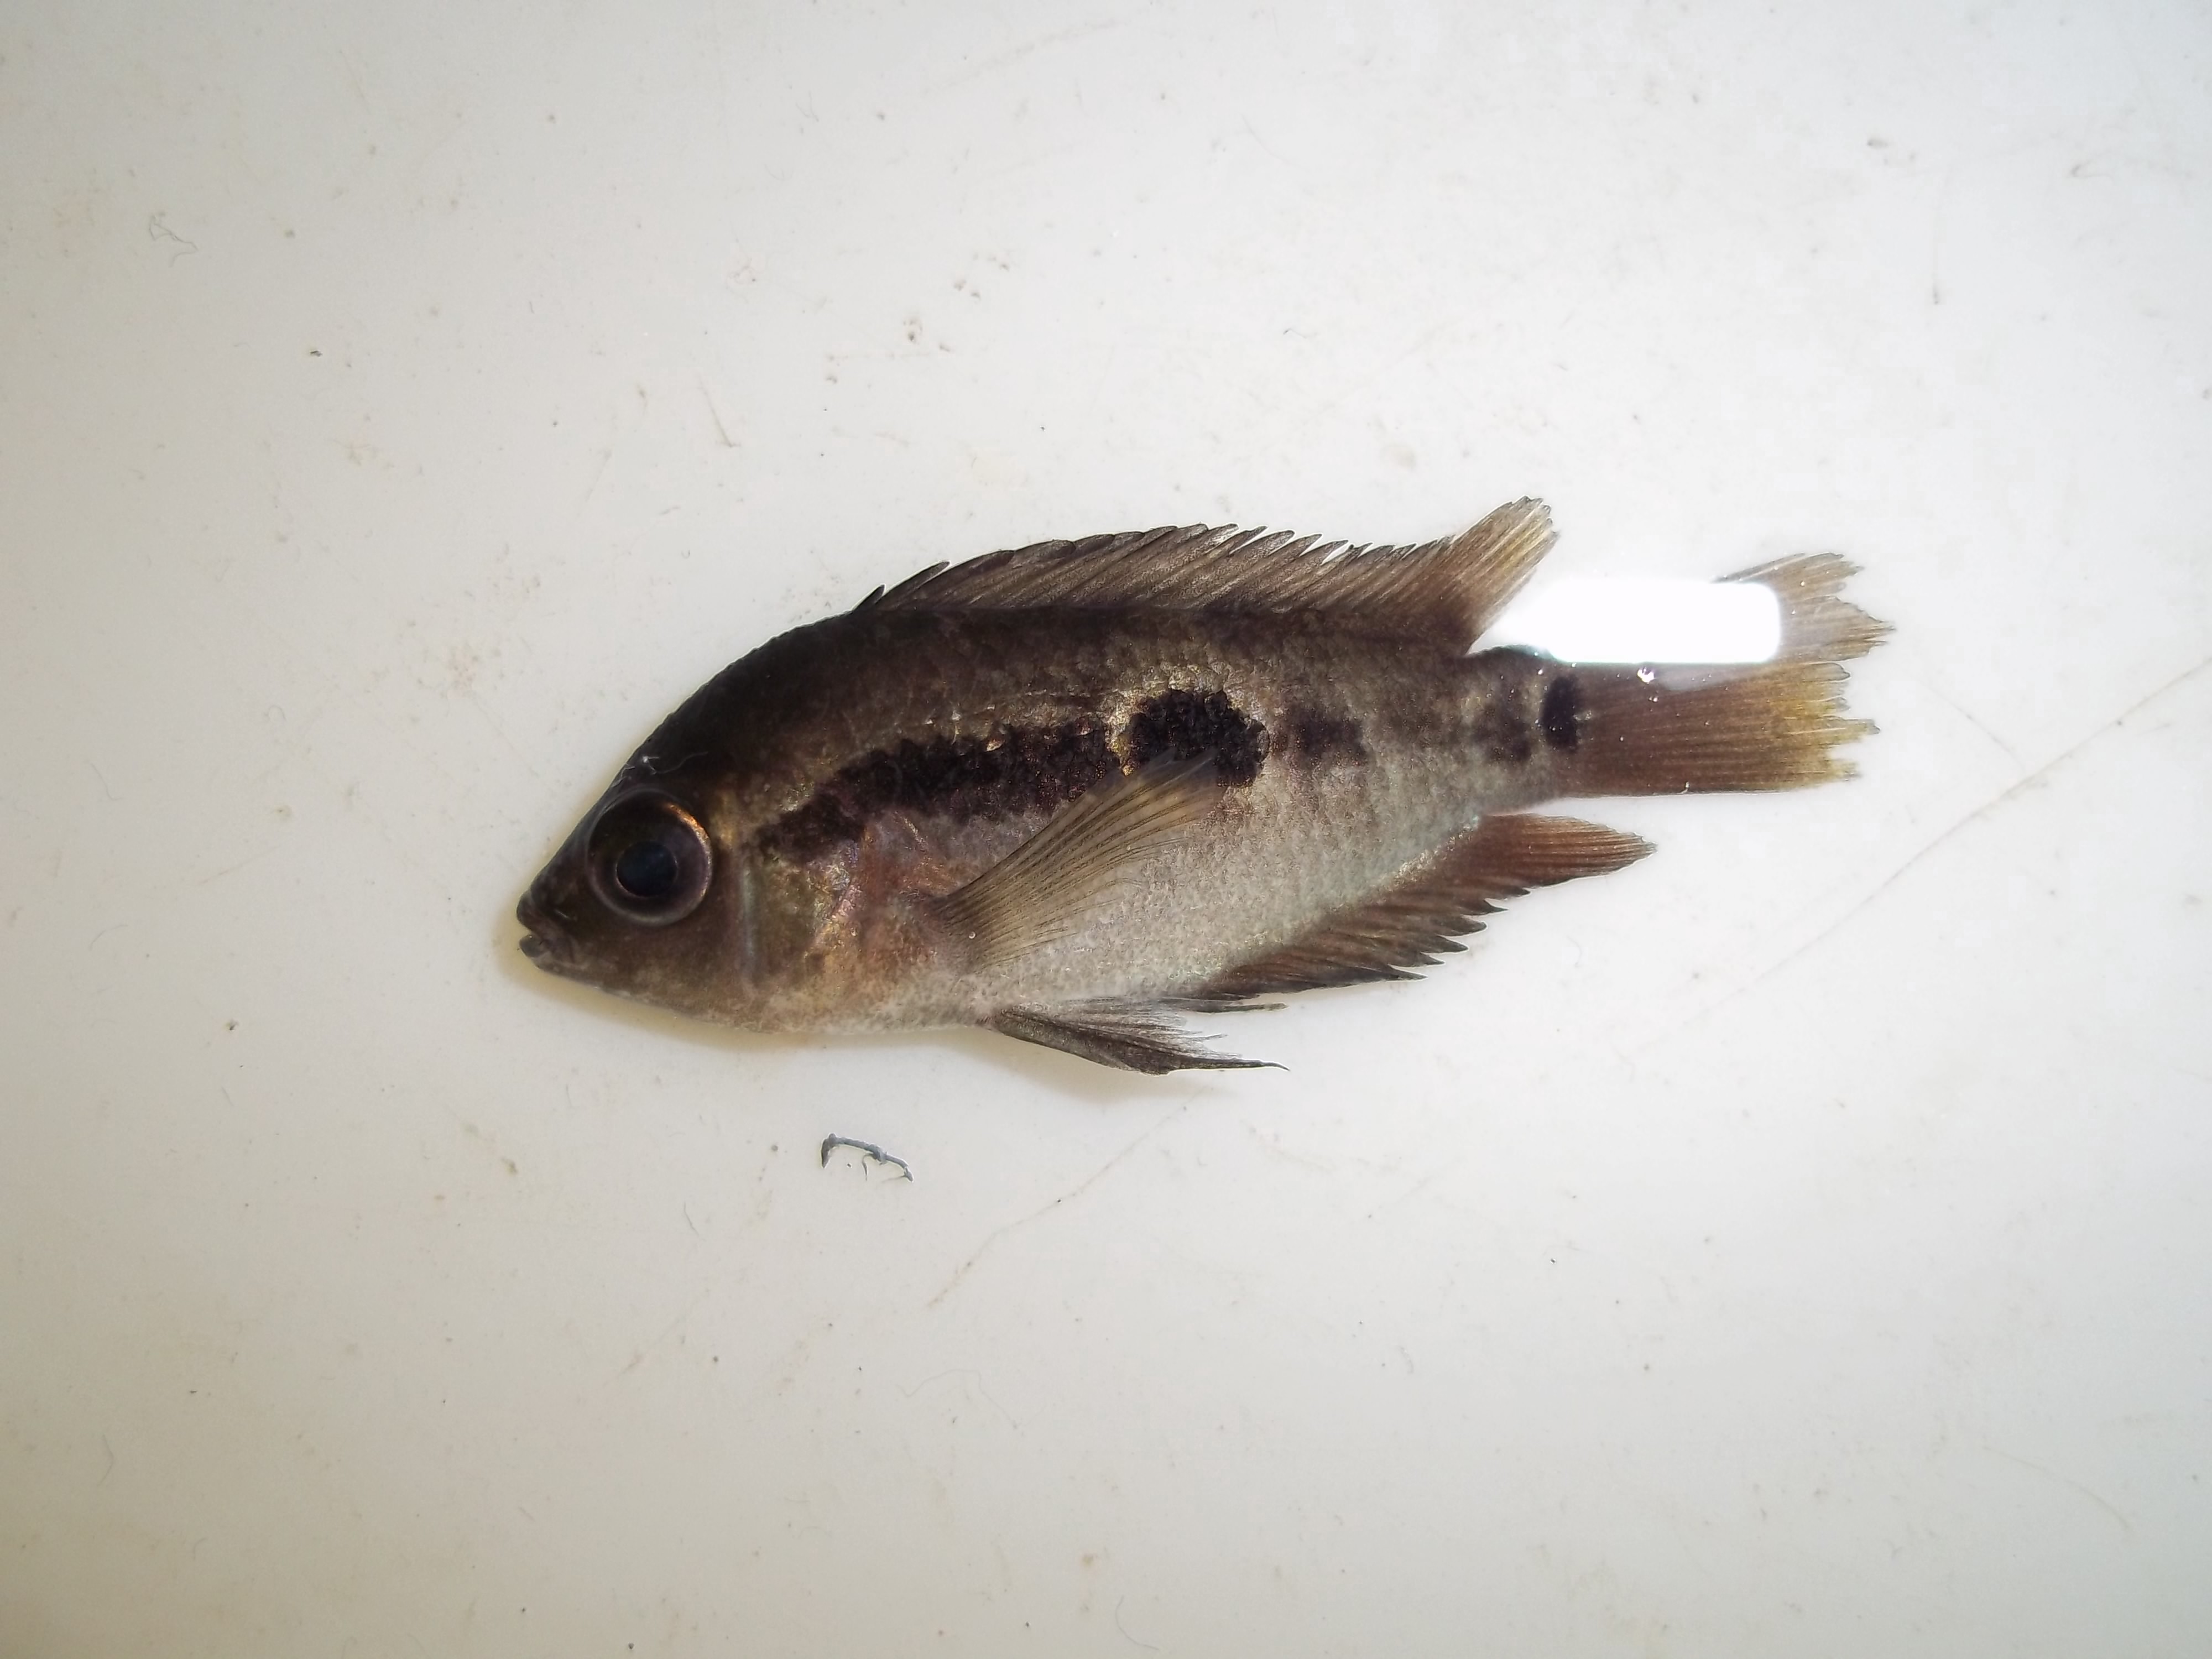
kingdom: Animalia
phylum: Chordata
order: Perciformes
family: Cichlidae
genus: Herotilapia
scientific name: Herotilapia multispinosa
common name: Rainbow cichlid
